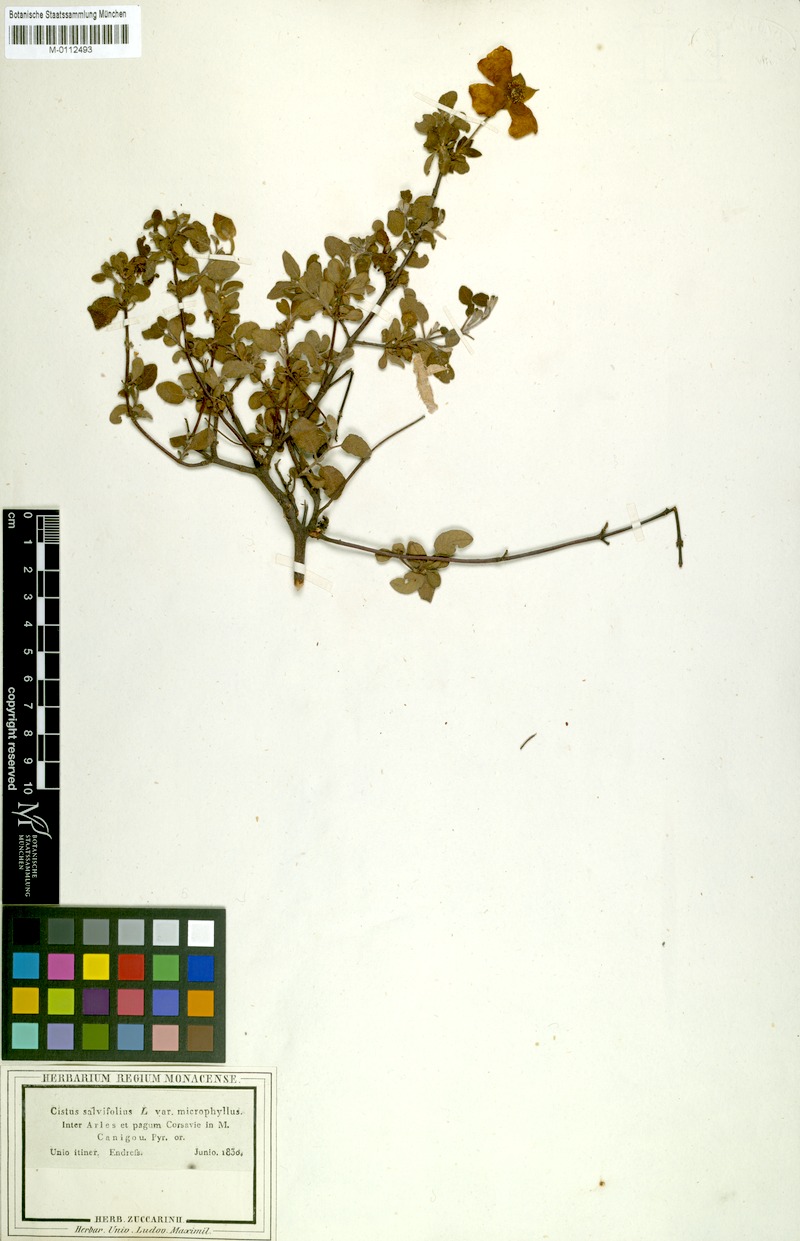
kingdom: Plantae
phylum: Tracheophyta
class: Magnoliopsida
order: Malvales
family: Cistaceae
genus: Cistus
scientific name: Cistus salviifolius
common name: Salvia cistus
